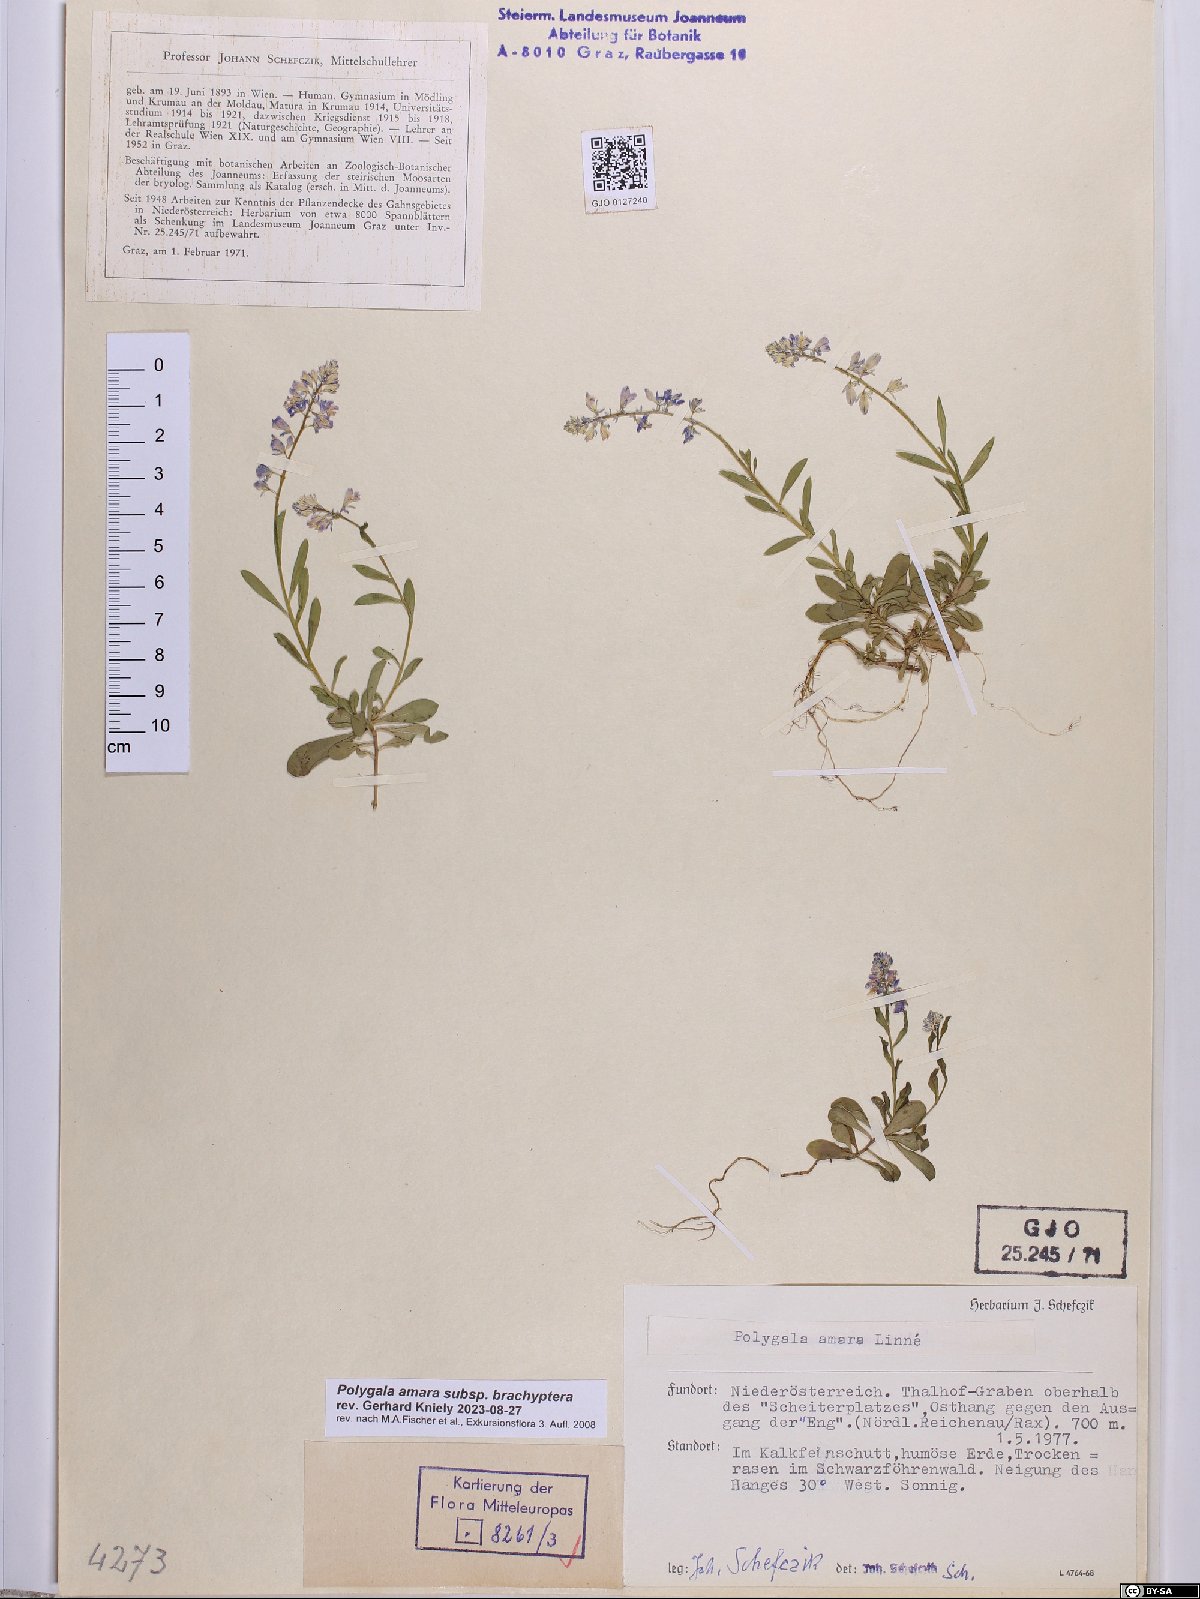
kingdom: Plantae
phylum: Tracheophyta
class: Magnoliopsida
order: Fabales
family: Polygalaceae
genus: Polygala
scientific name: Polygala amara
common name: Milkwort
